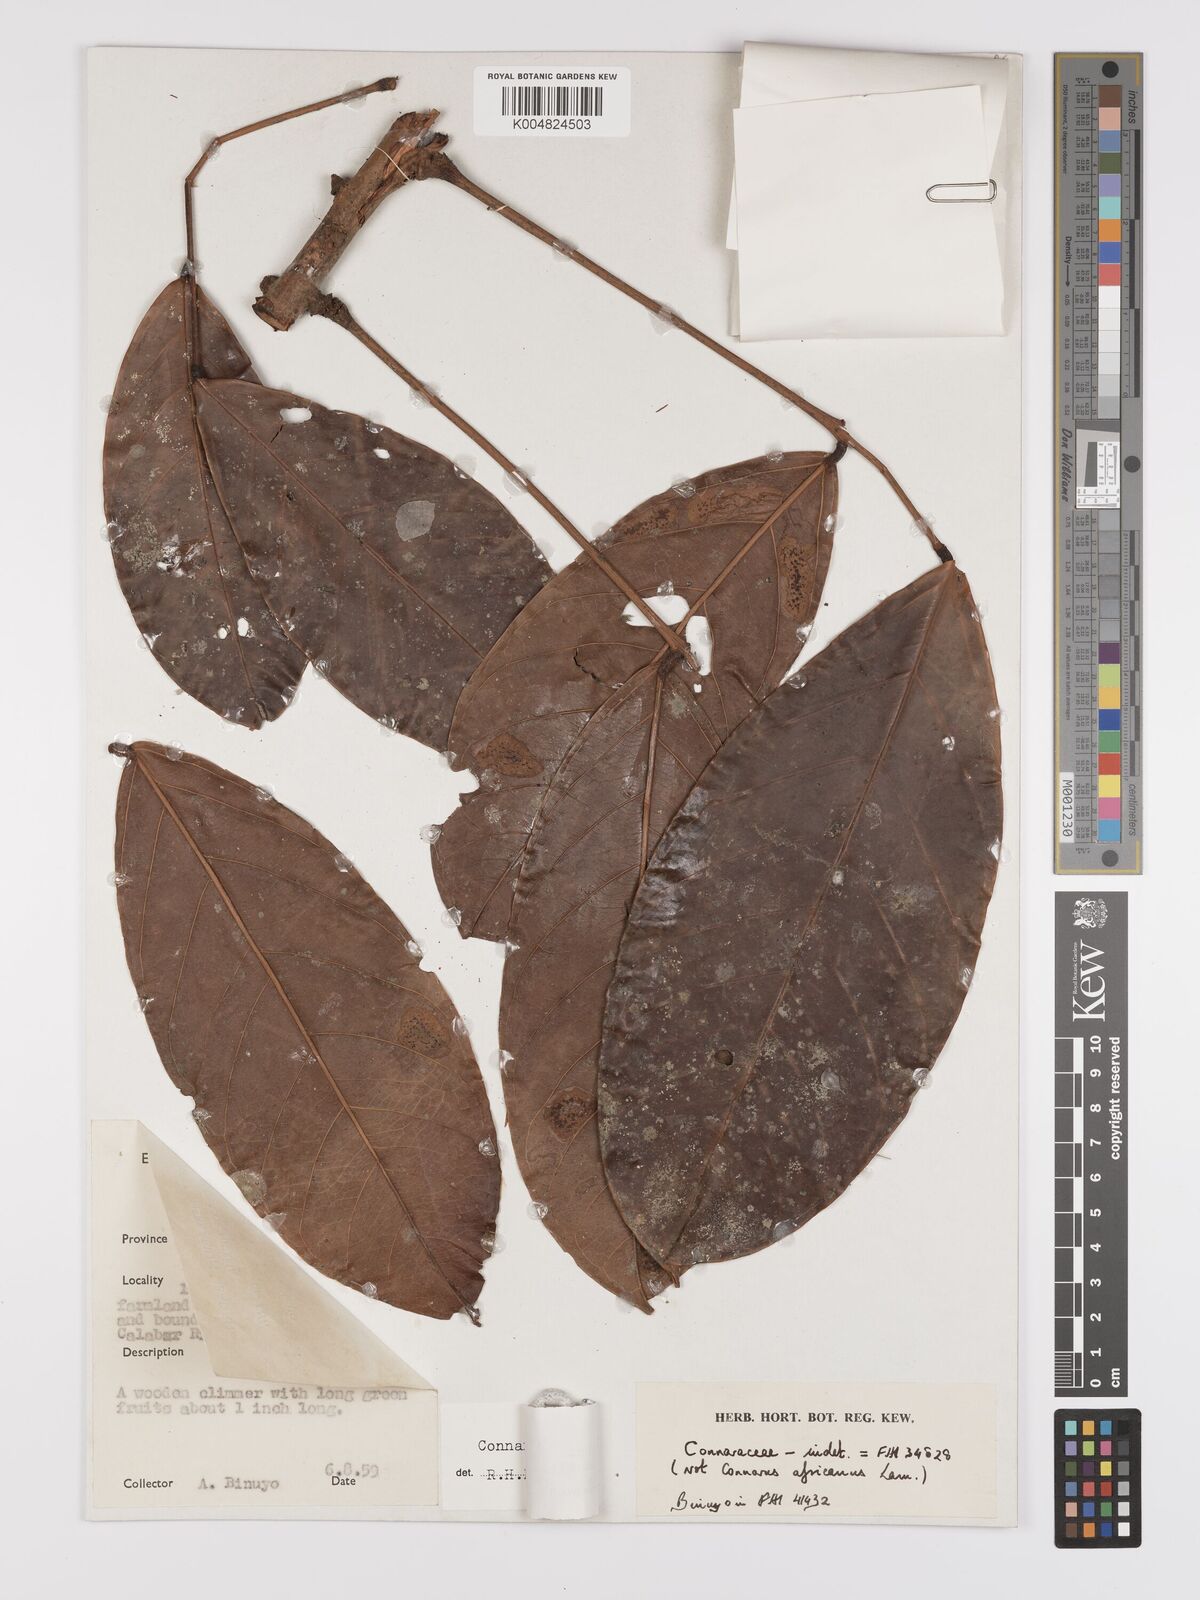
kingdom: Plantae
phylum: Tracheophyta
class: Magnoliopsida
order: Oxalidales
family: Connaraceae
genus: Connarus
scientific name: Connarus congolanus
